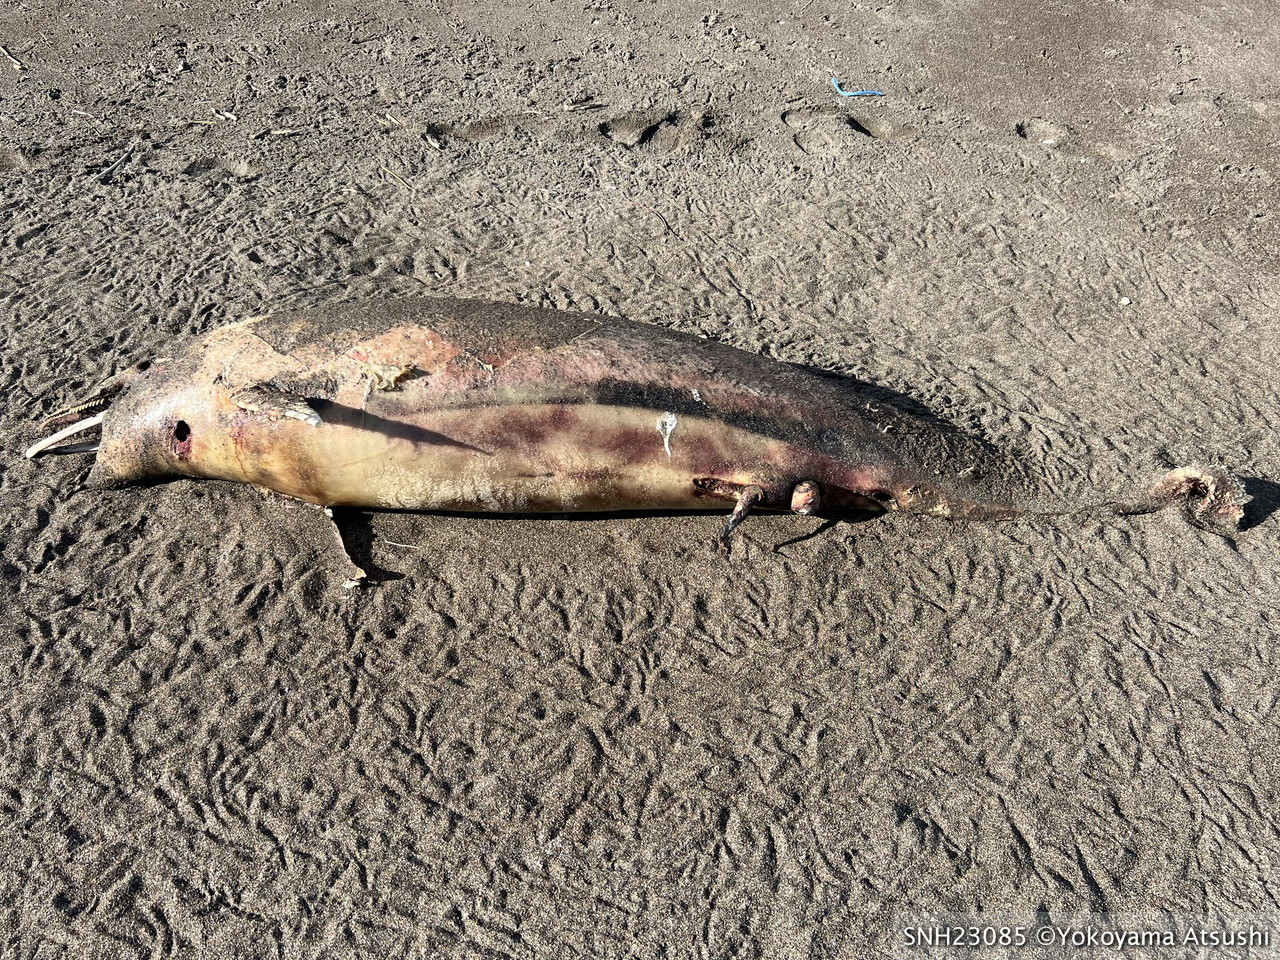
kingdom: Animalia
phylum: Chordata
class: Mammalia
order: Cetacea
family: Delphinidae
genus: Lagenorhynchus
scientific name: Lagenorhynchus obliquidens
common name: Pacific white-sided dolphin
